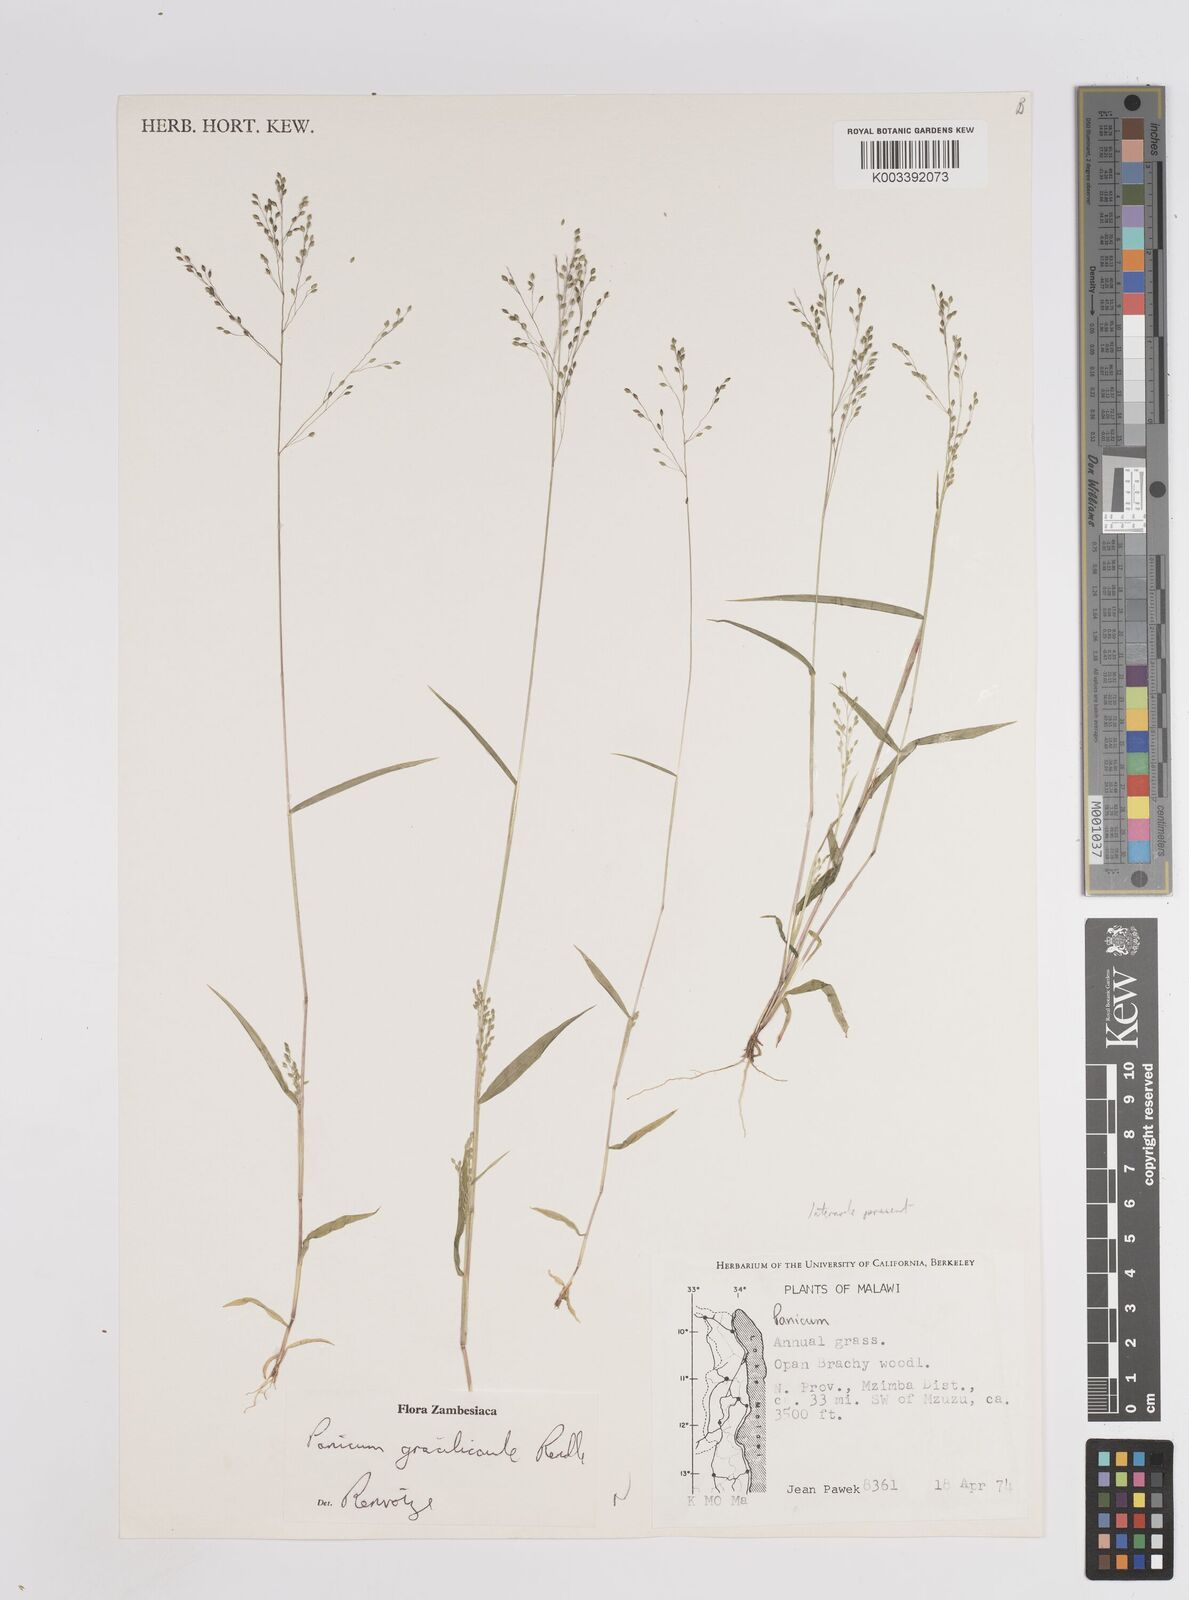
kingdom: Plantae
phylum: Tracheophyta
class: Liliopsida
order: Poales
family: Poaceae
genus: Trichanthecium
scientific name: Trichanthecium gracilicaule
